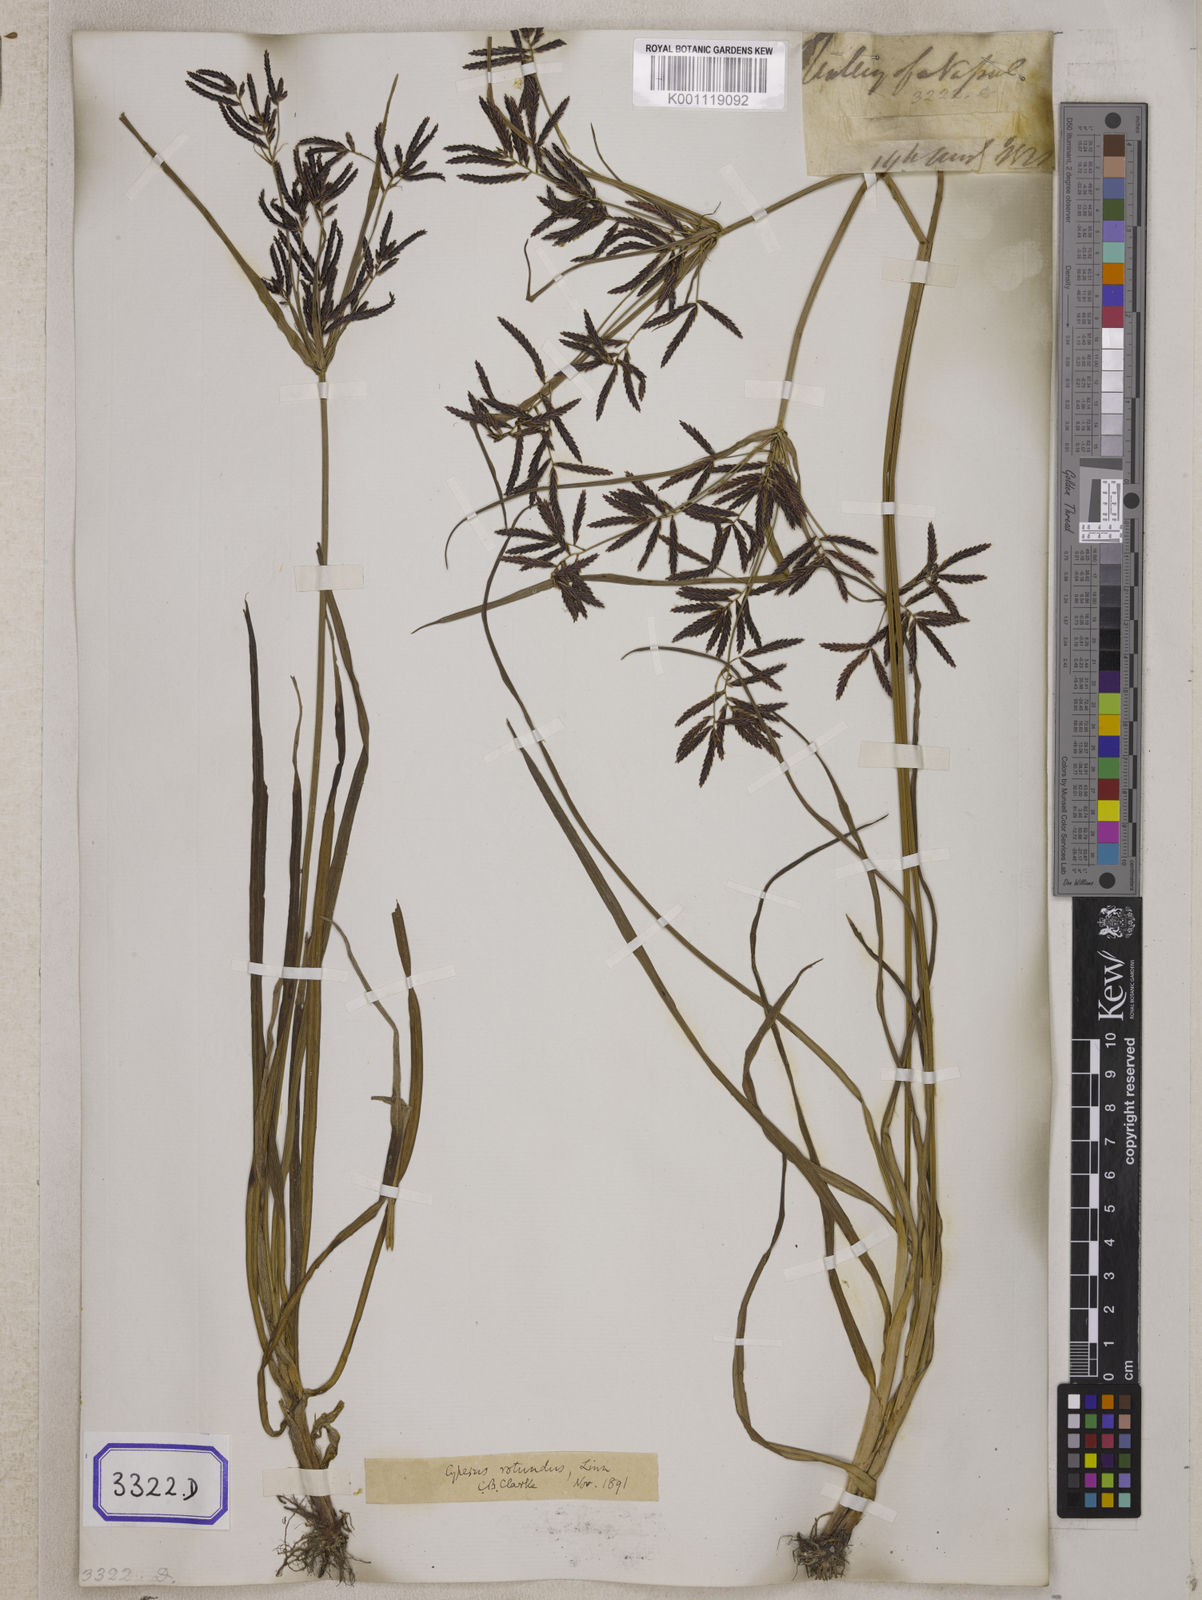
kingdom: Plantae
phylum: Tracheophyta
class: Liliopsida
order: Poales
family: Cyperaceae
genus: Cyperus
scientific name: Cyperus
